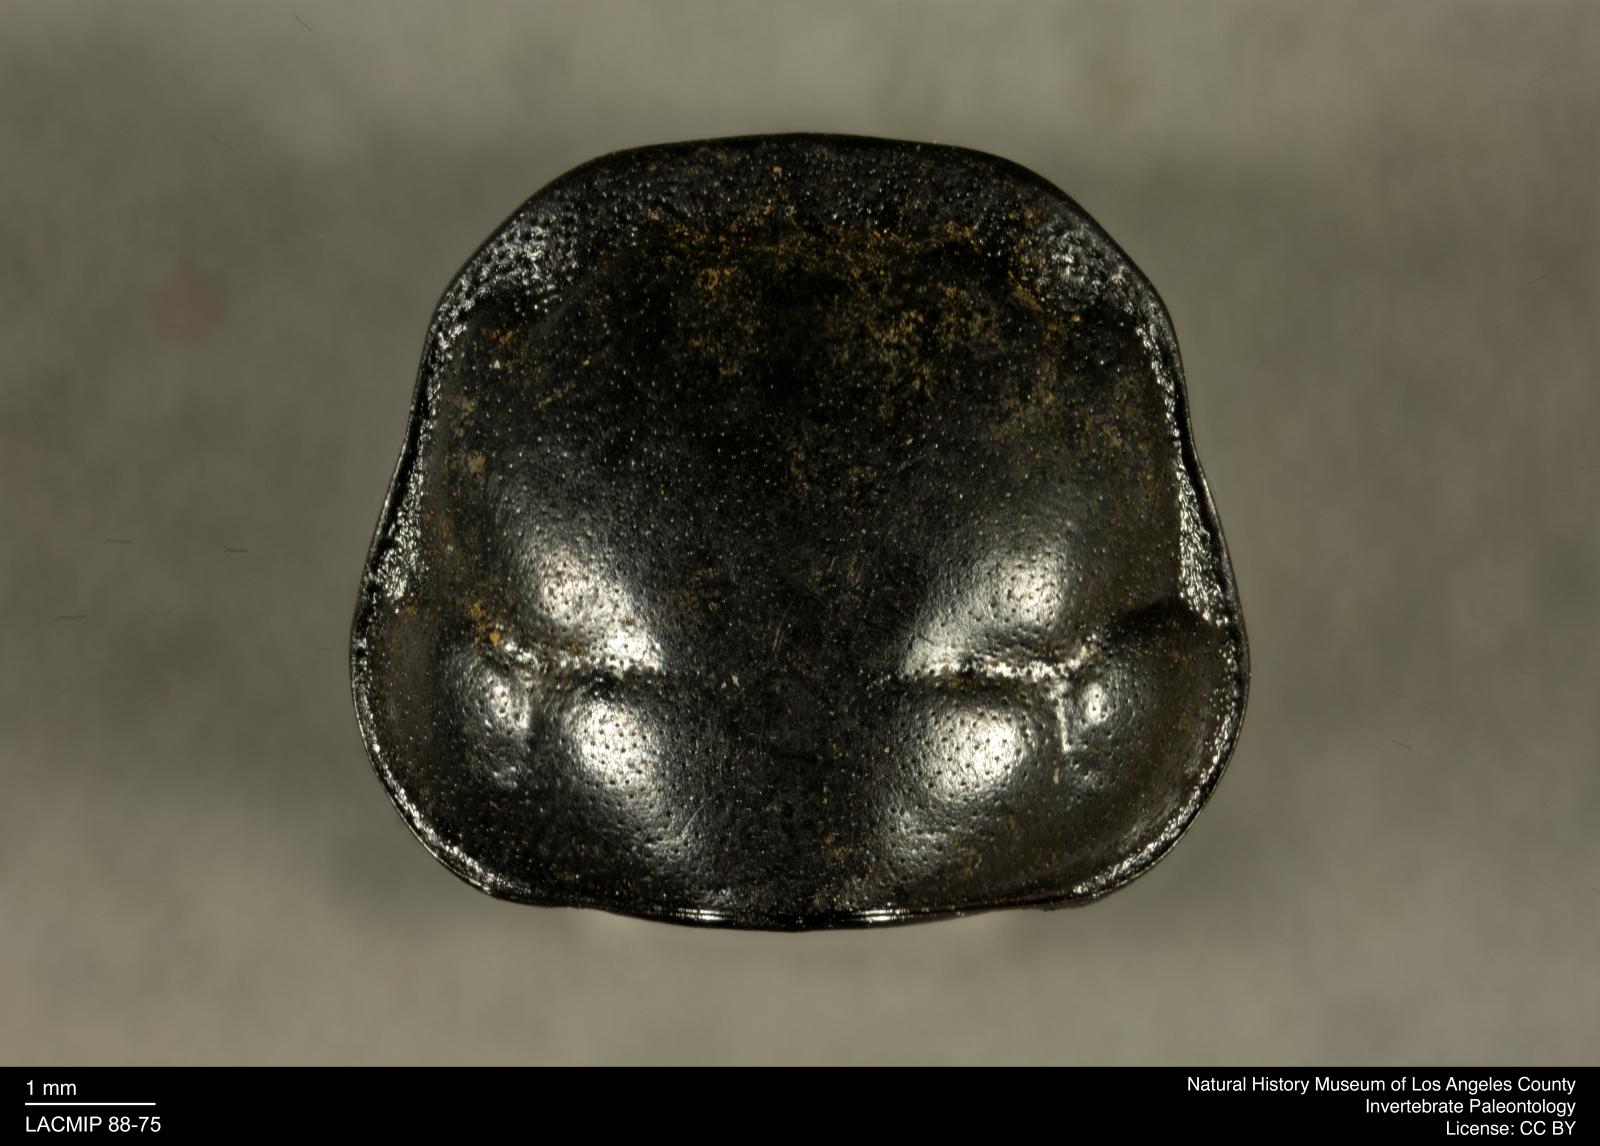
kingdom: Animalia
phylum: Arthropoda
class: Insecta
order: Coleoptera
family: Staphylinidae
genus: Nicrophorus
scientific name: Nicrophorus marginatus
